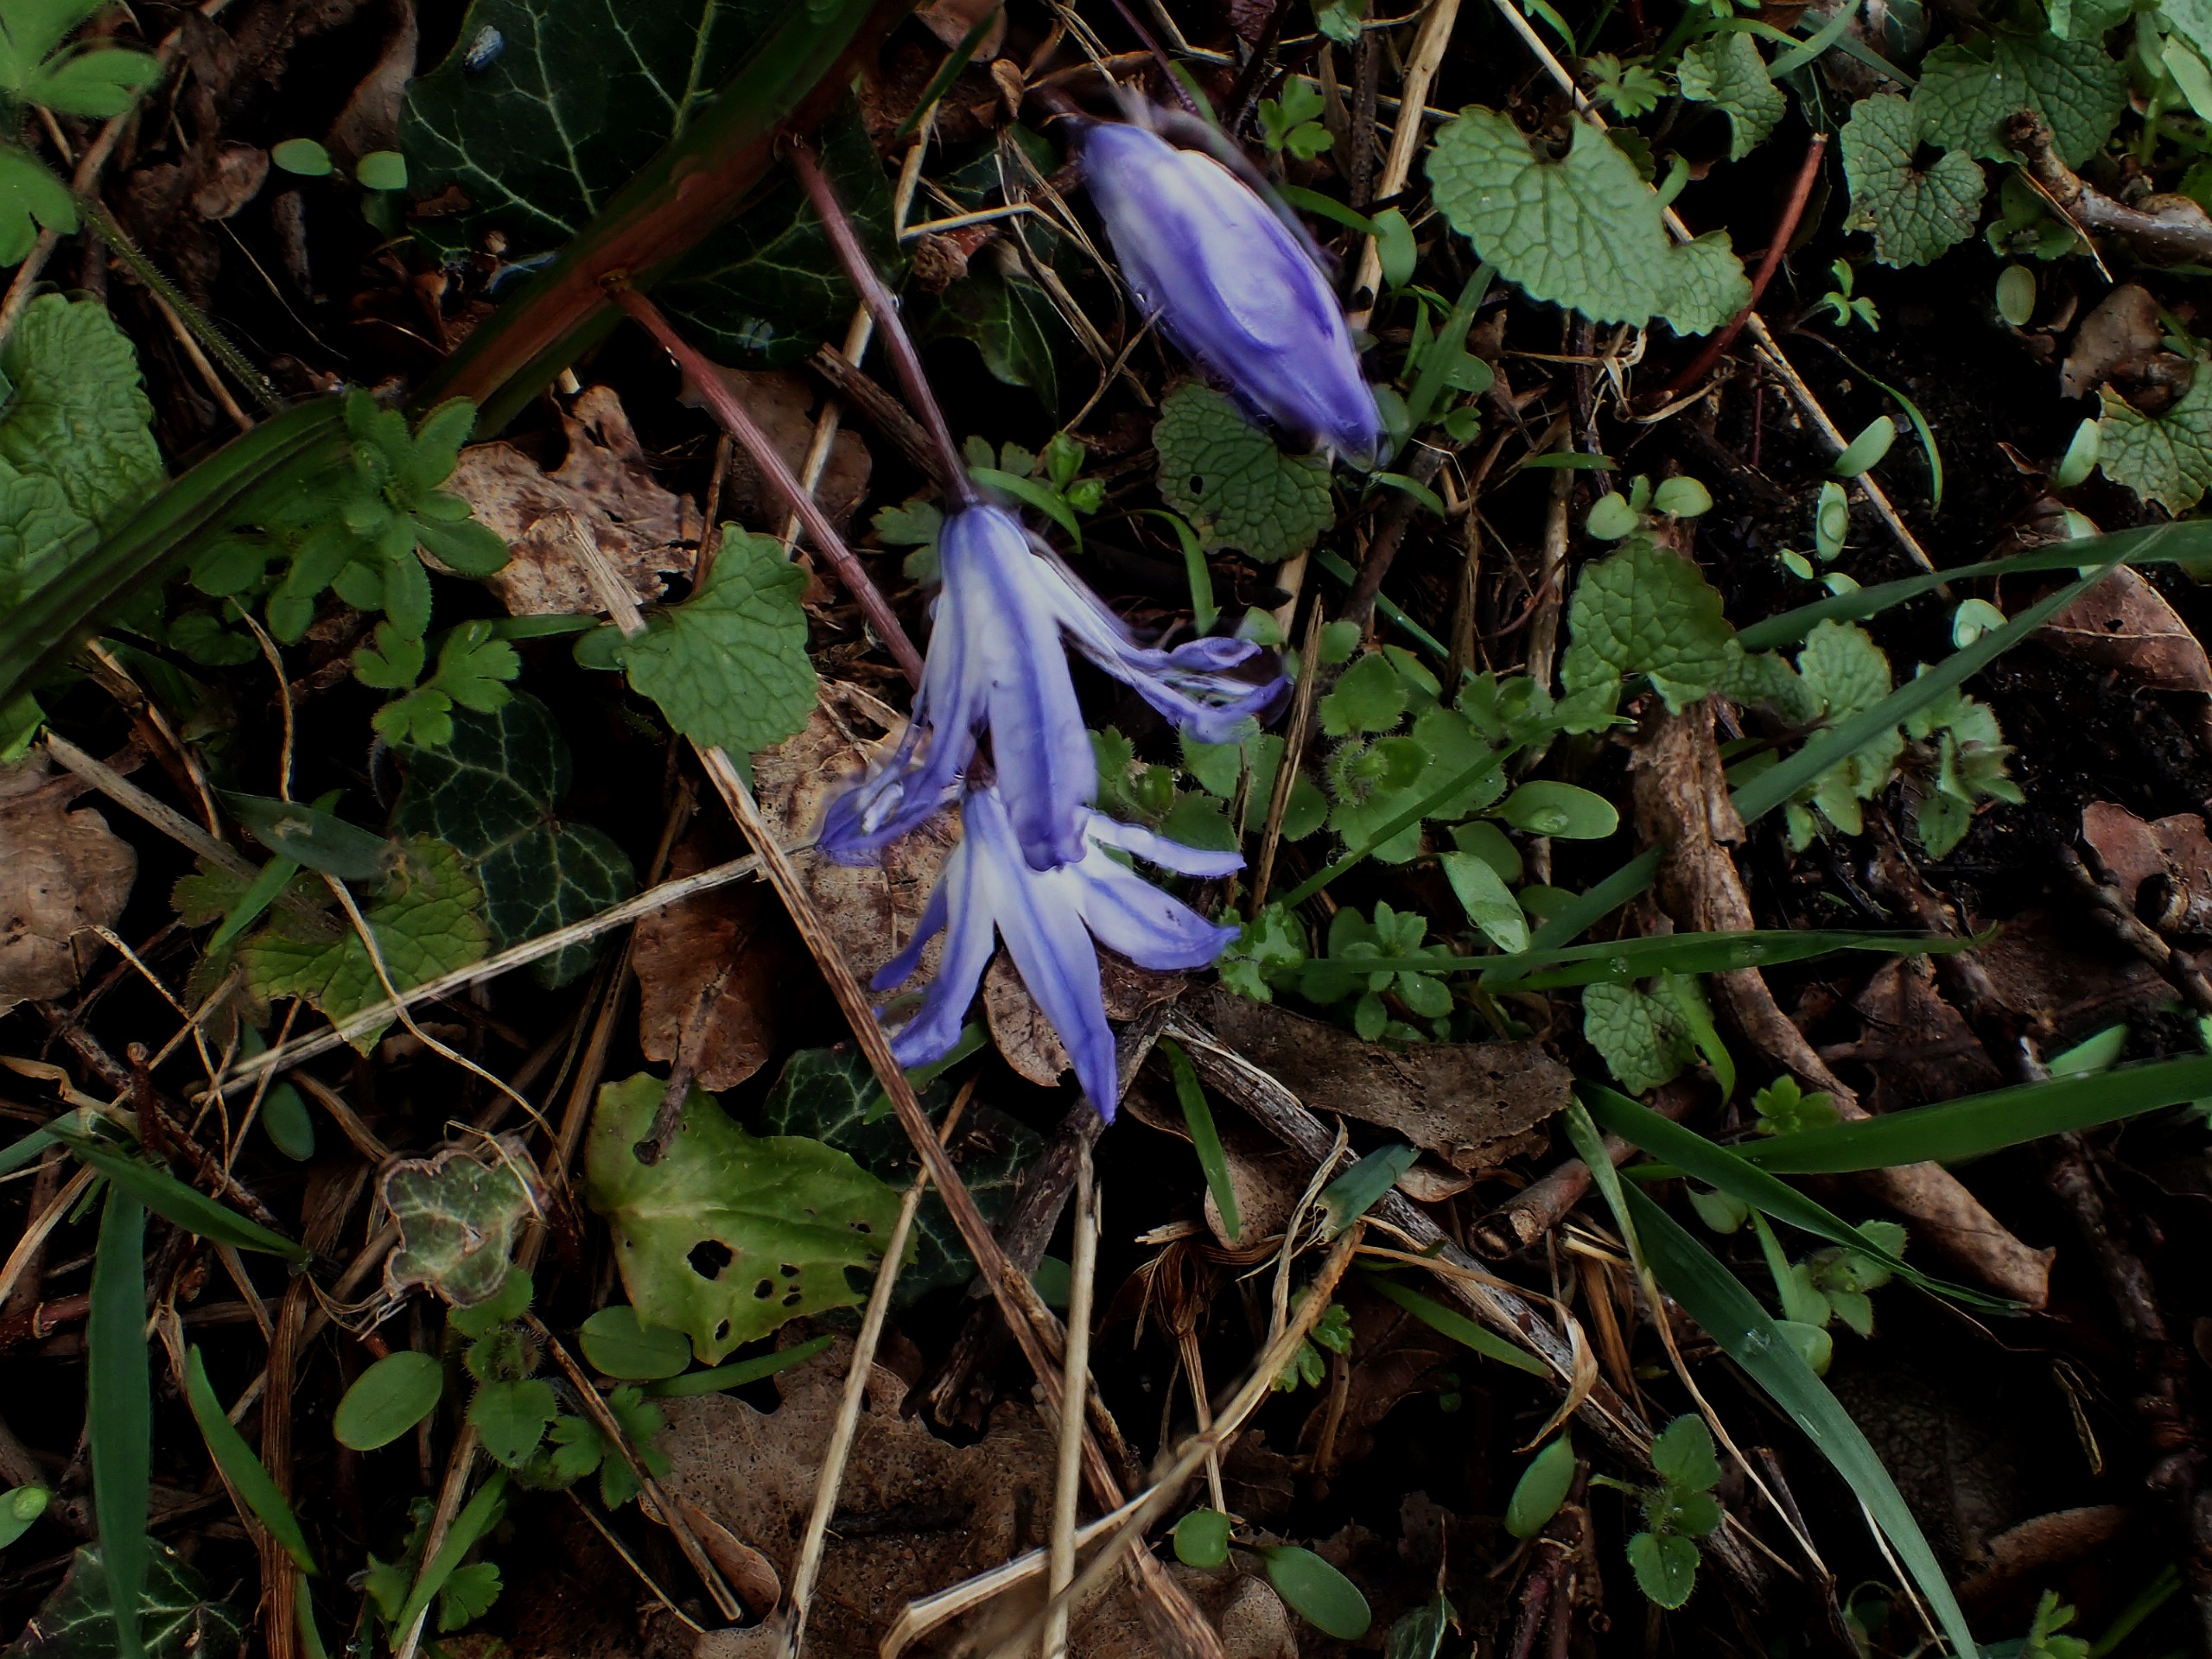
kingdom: Plantae
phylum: Tracheophyta
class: Liliopsida
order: Asparagales
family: Asparagaceae
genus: Scilla
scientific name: Scilla forbesii
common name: Almindelig snepryd
